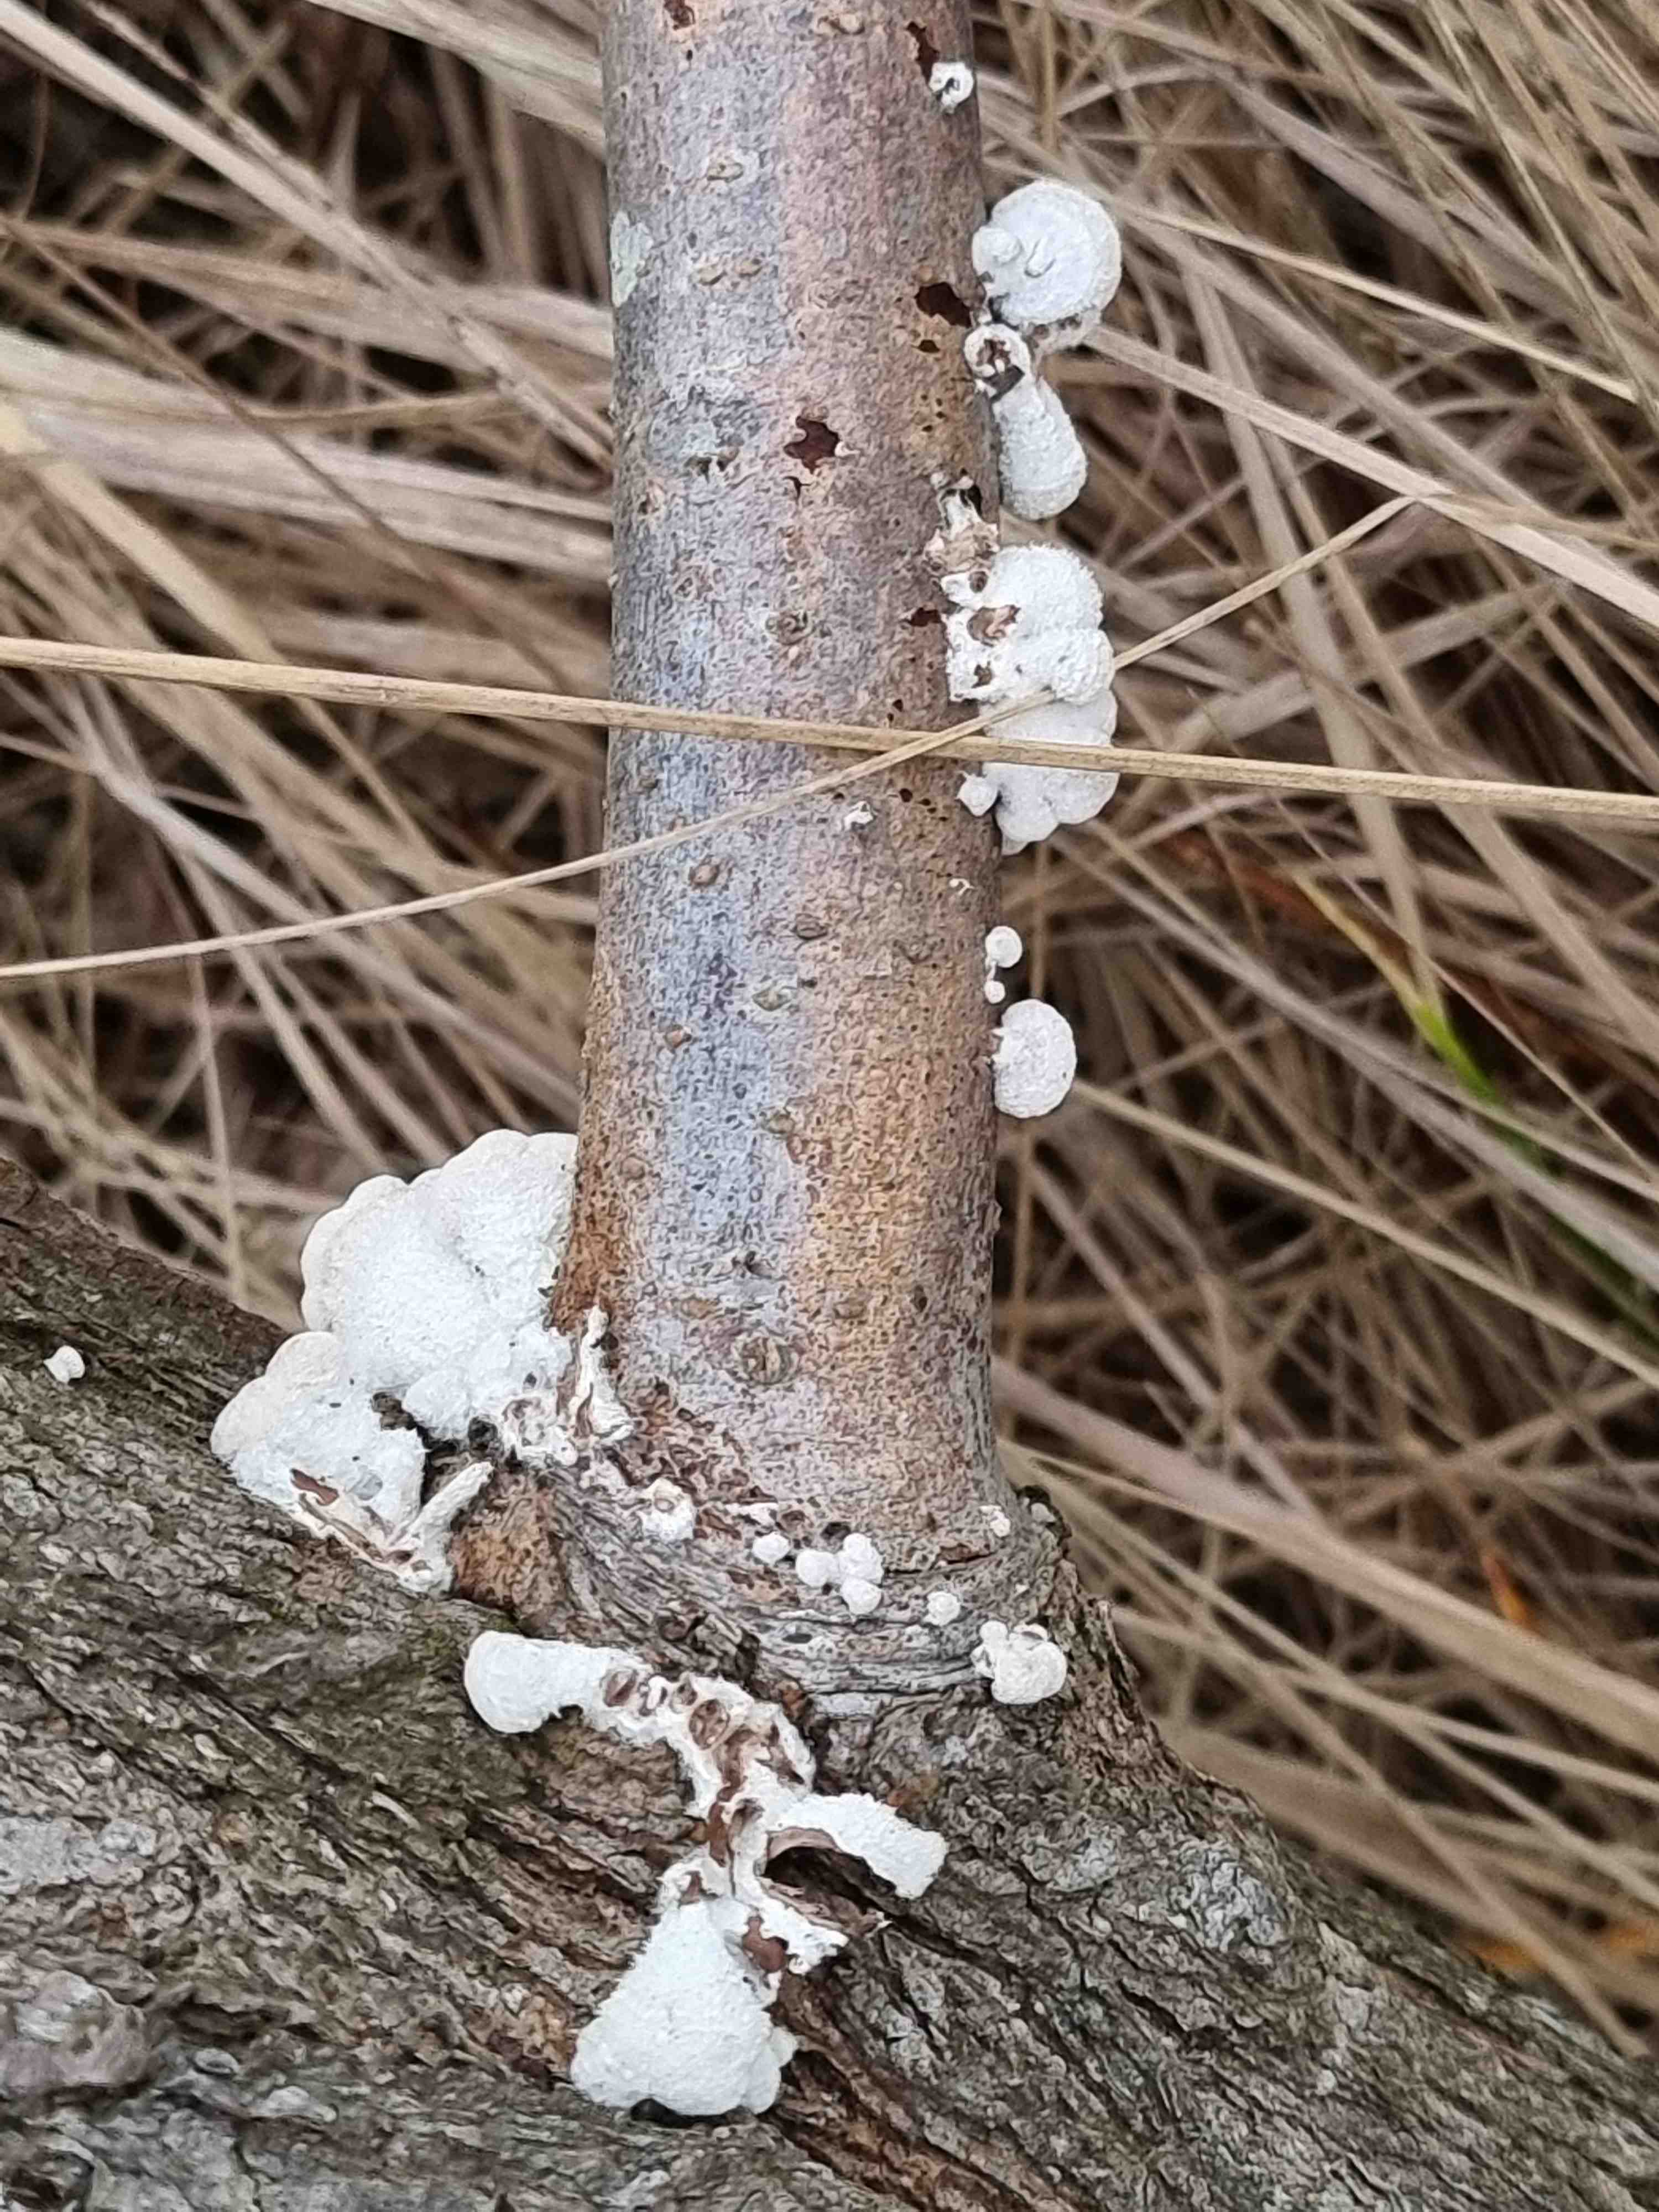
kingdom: Fungi
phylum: Basidiomycota
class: Agaricomycetes
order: Agaricales
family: Schizophyllaceae
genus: Schizophyllum
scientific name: Schizophyllum commune
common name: kløvblad
